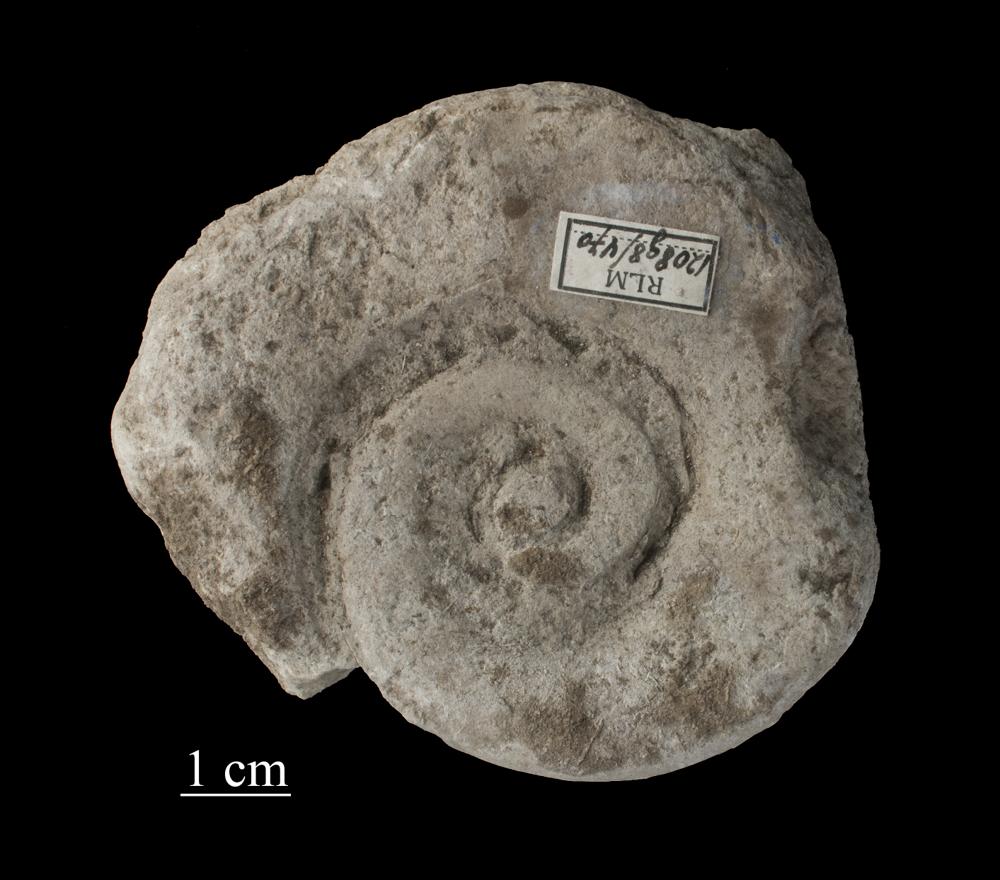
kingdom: Animalia
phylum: Mollusca
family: Macluritidae
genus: Maclurites
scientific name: Maclurites Maclurea neritoides
